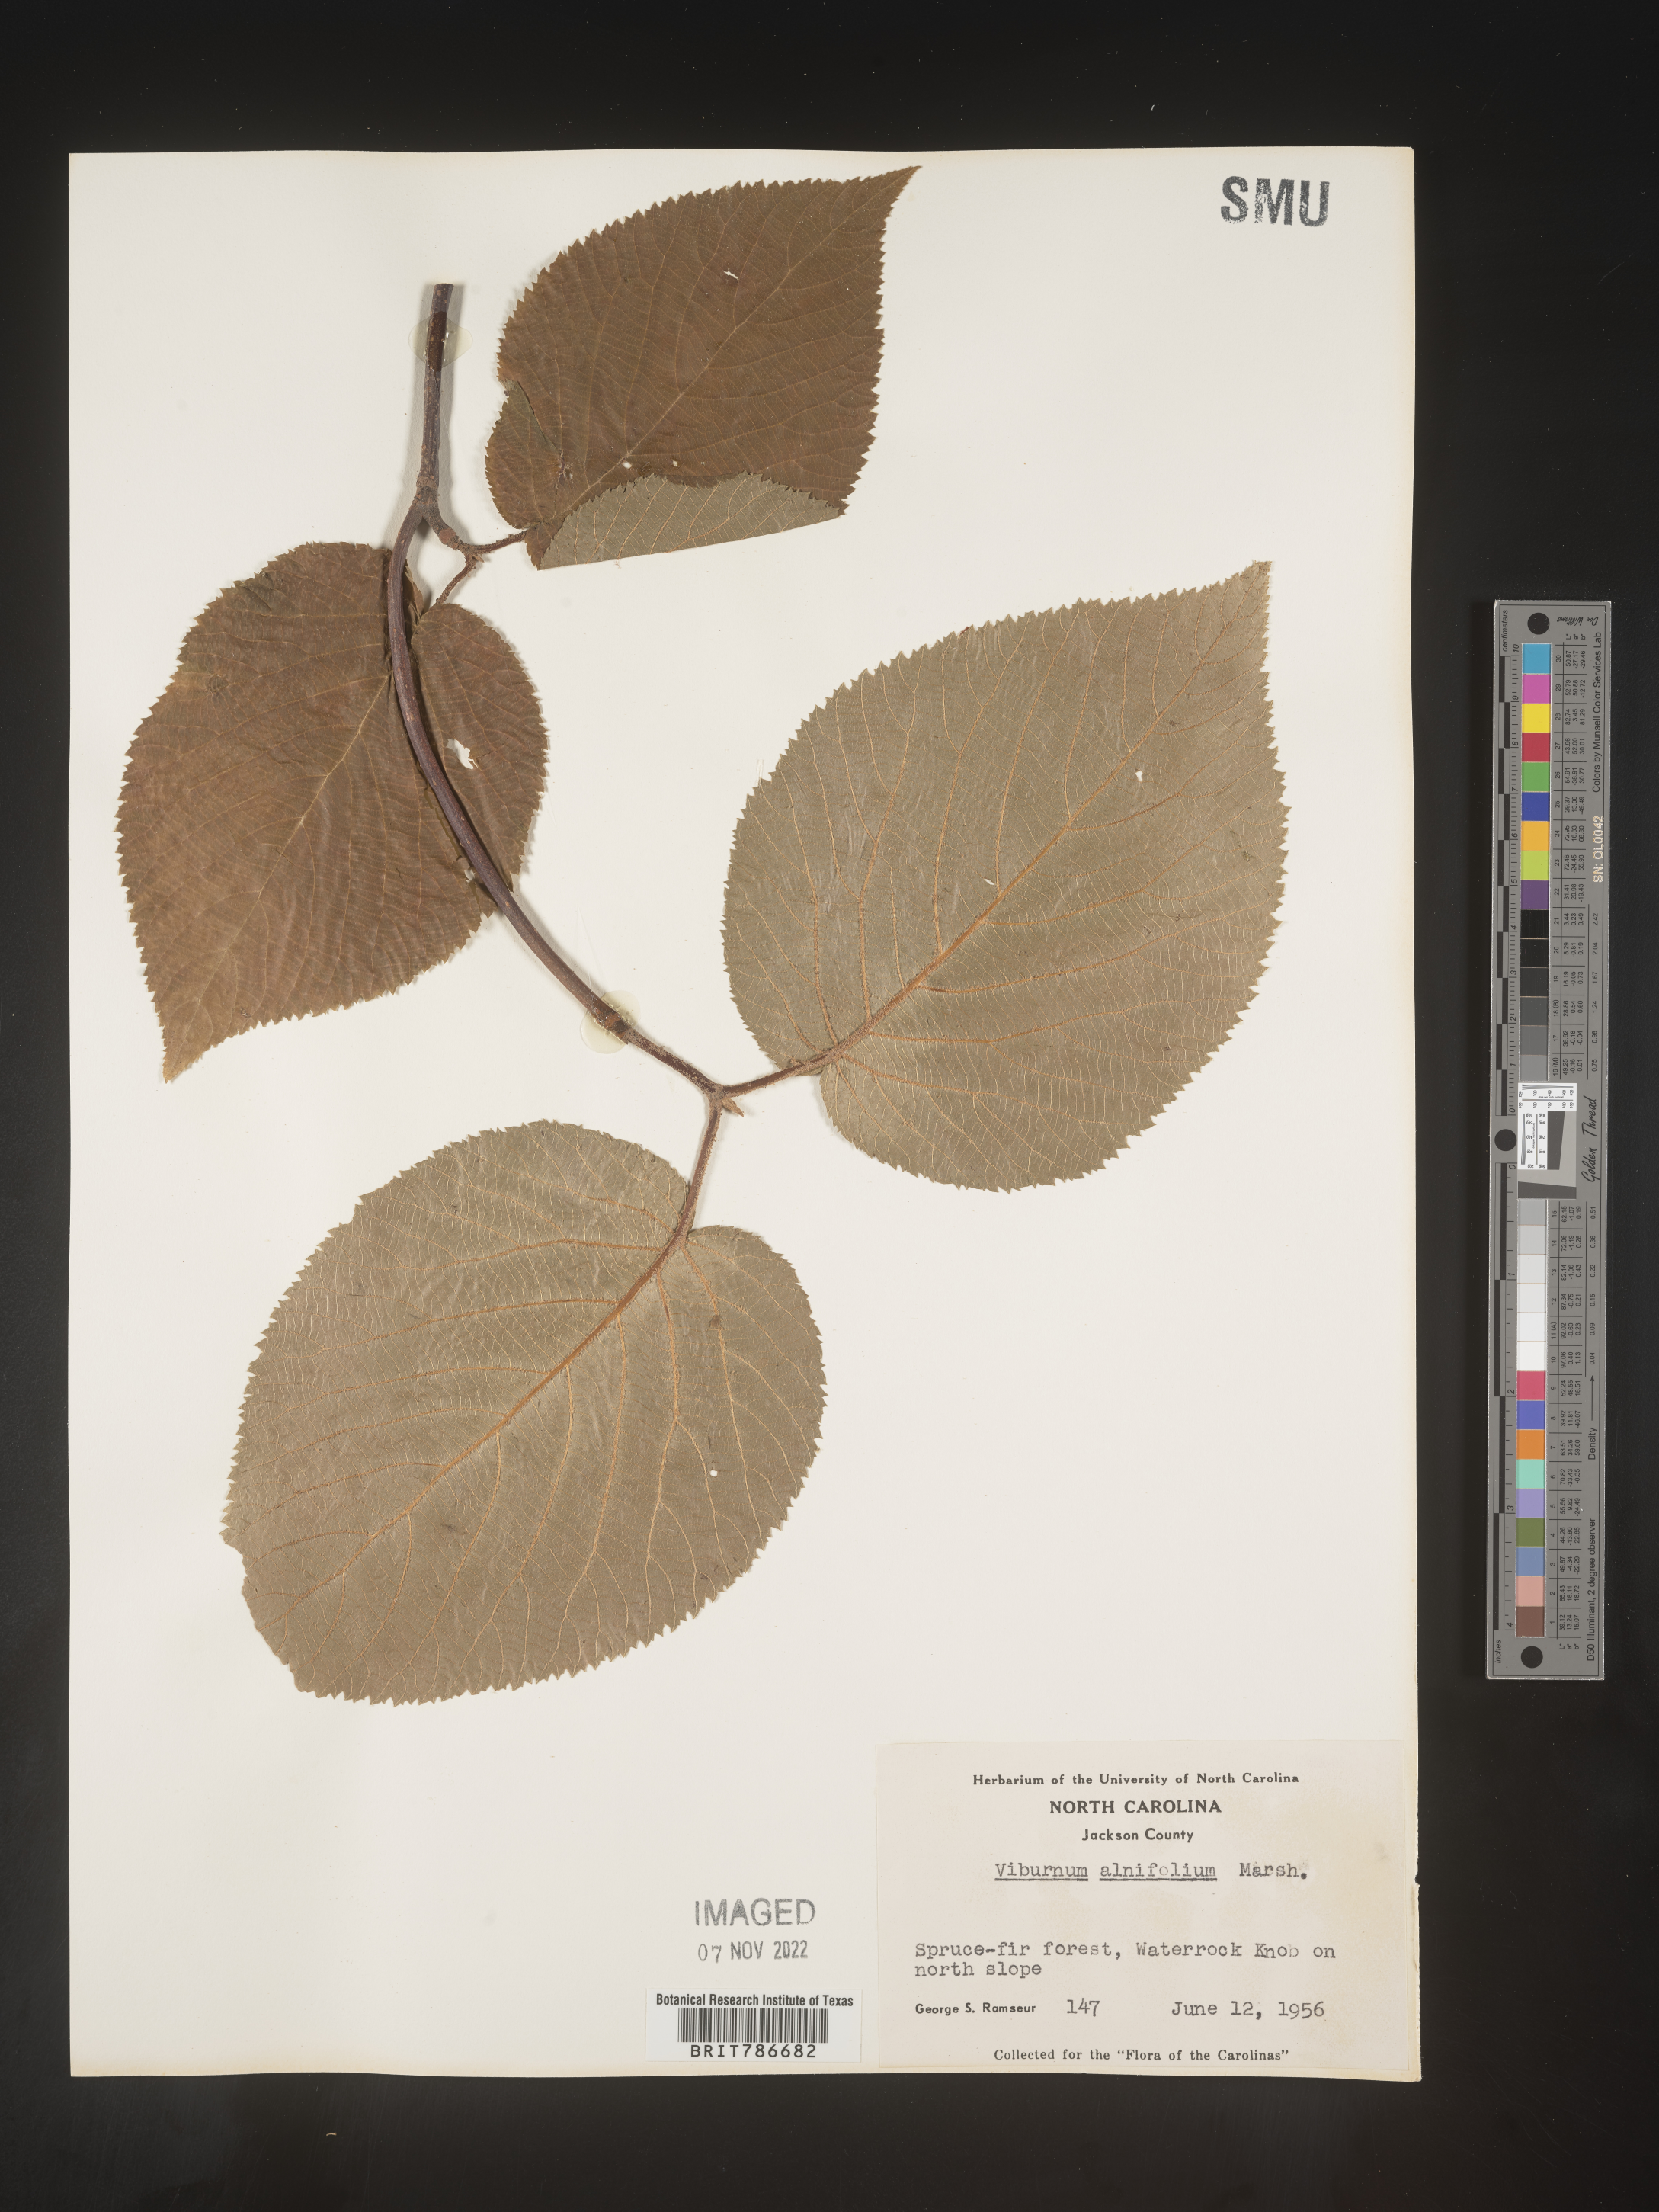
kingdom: Plantae
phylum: Tracheophyta
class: Magnoliopsida
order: Dipsacales
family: Viburnaceae
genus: Viburnum
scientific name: Viburnum lantanoides
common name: Hobblebush
